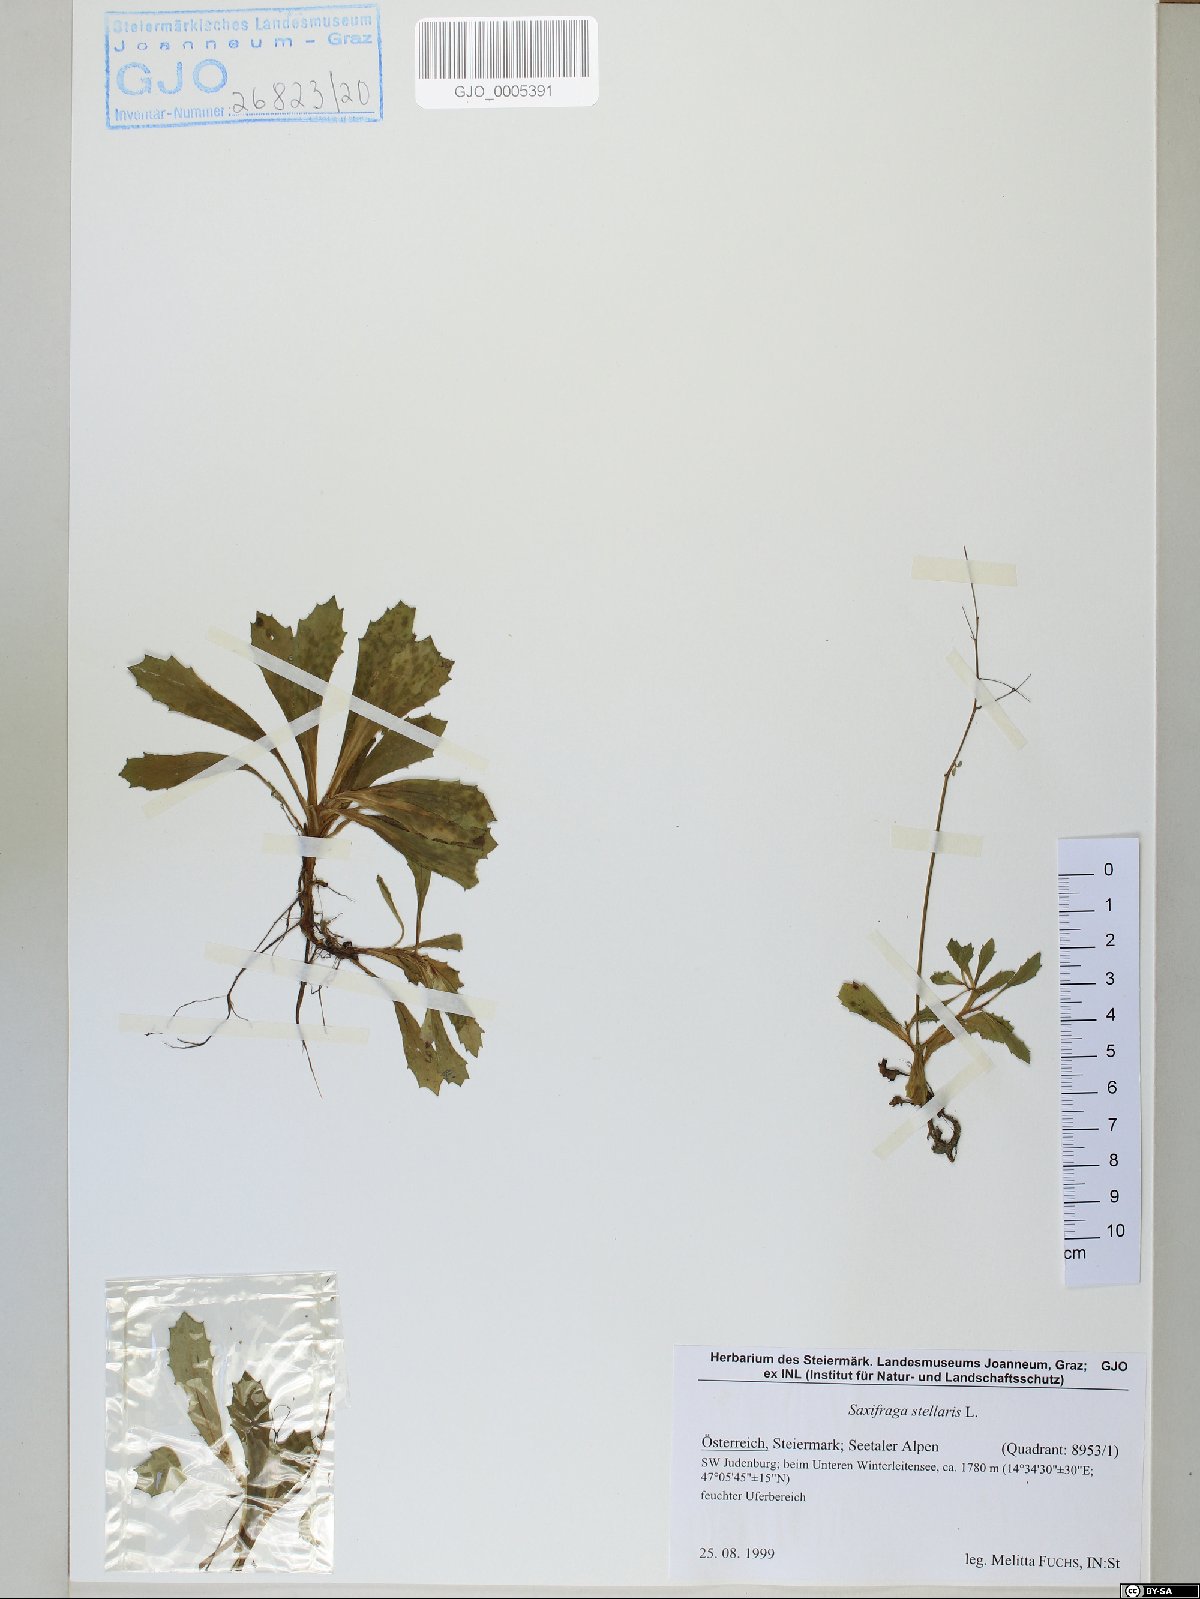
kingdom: Plantae
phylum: Tracheophyta
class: Magnoliopsida
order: Saxifragales
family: Saxifragaceae
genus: Micranthes
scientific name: Micranthes stellaris
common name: Starry saxifrage
